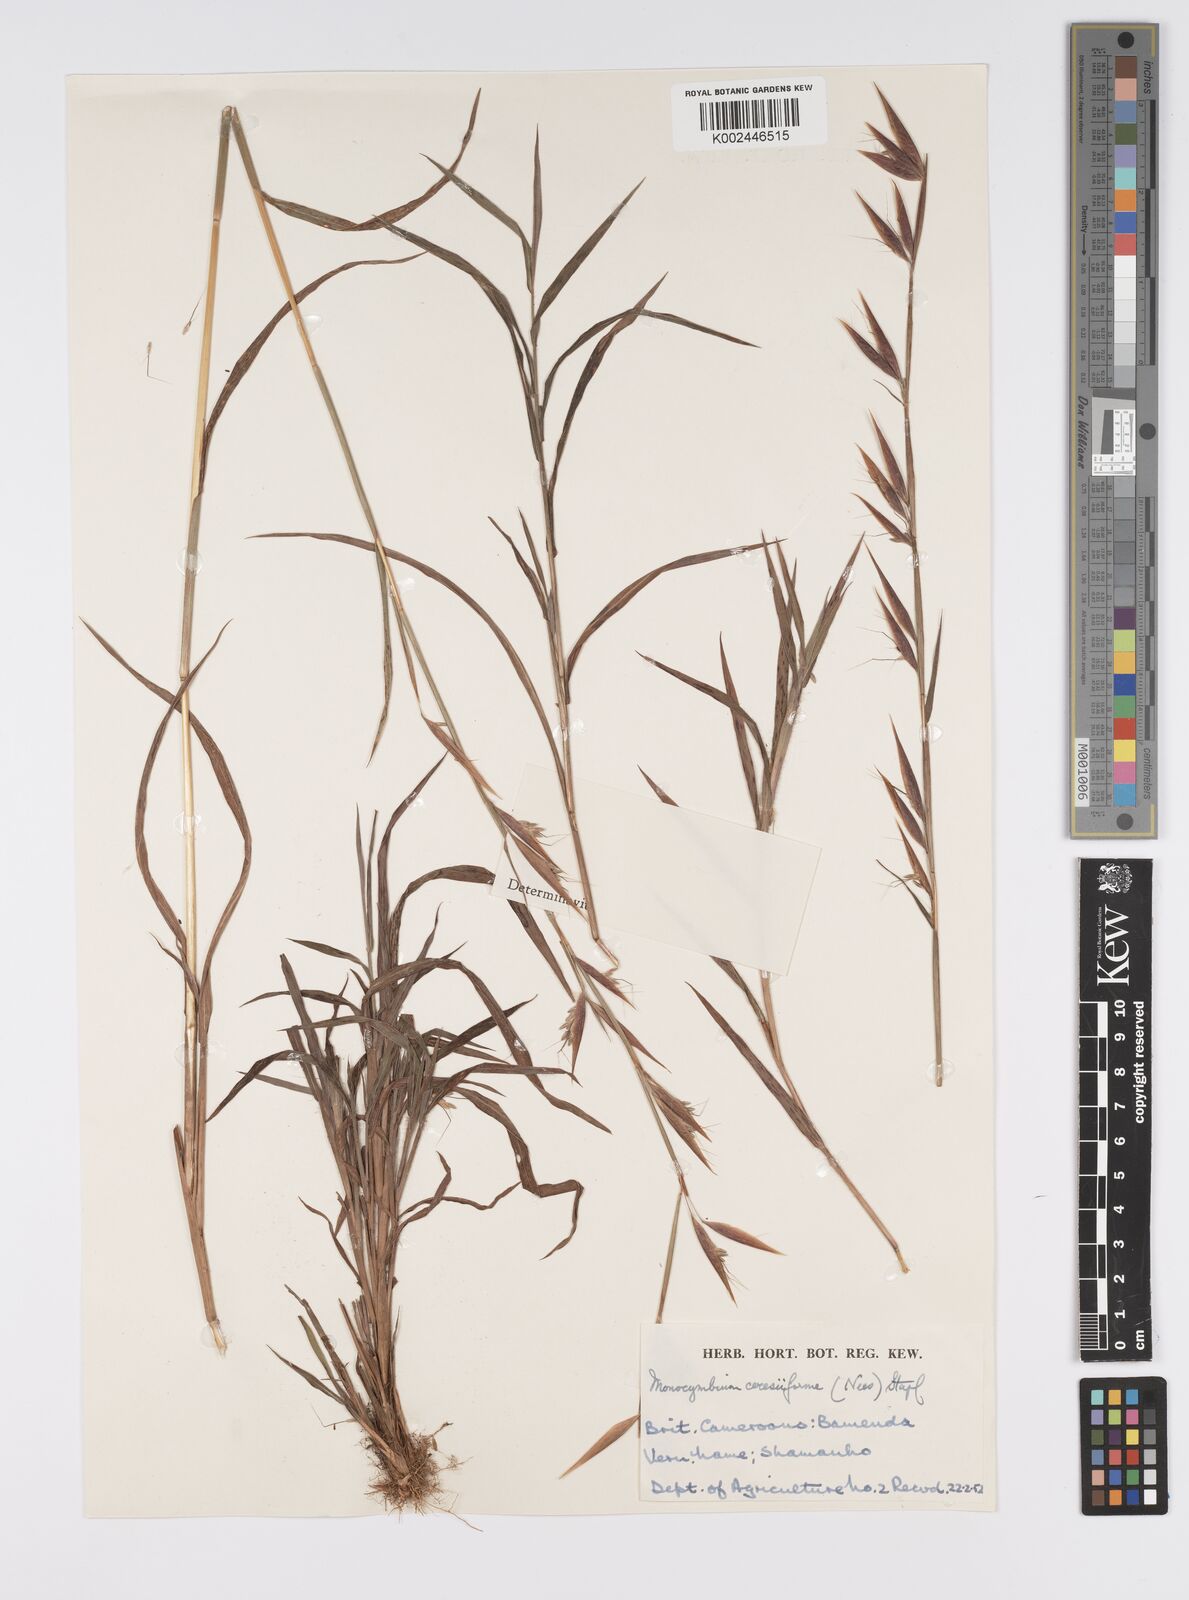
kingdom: Plantae
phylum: Tracheophyta
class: Liliopsida
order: Poales
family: Poaceae
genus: Monocymbium
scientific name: Monocymbium ceresiiforme
